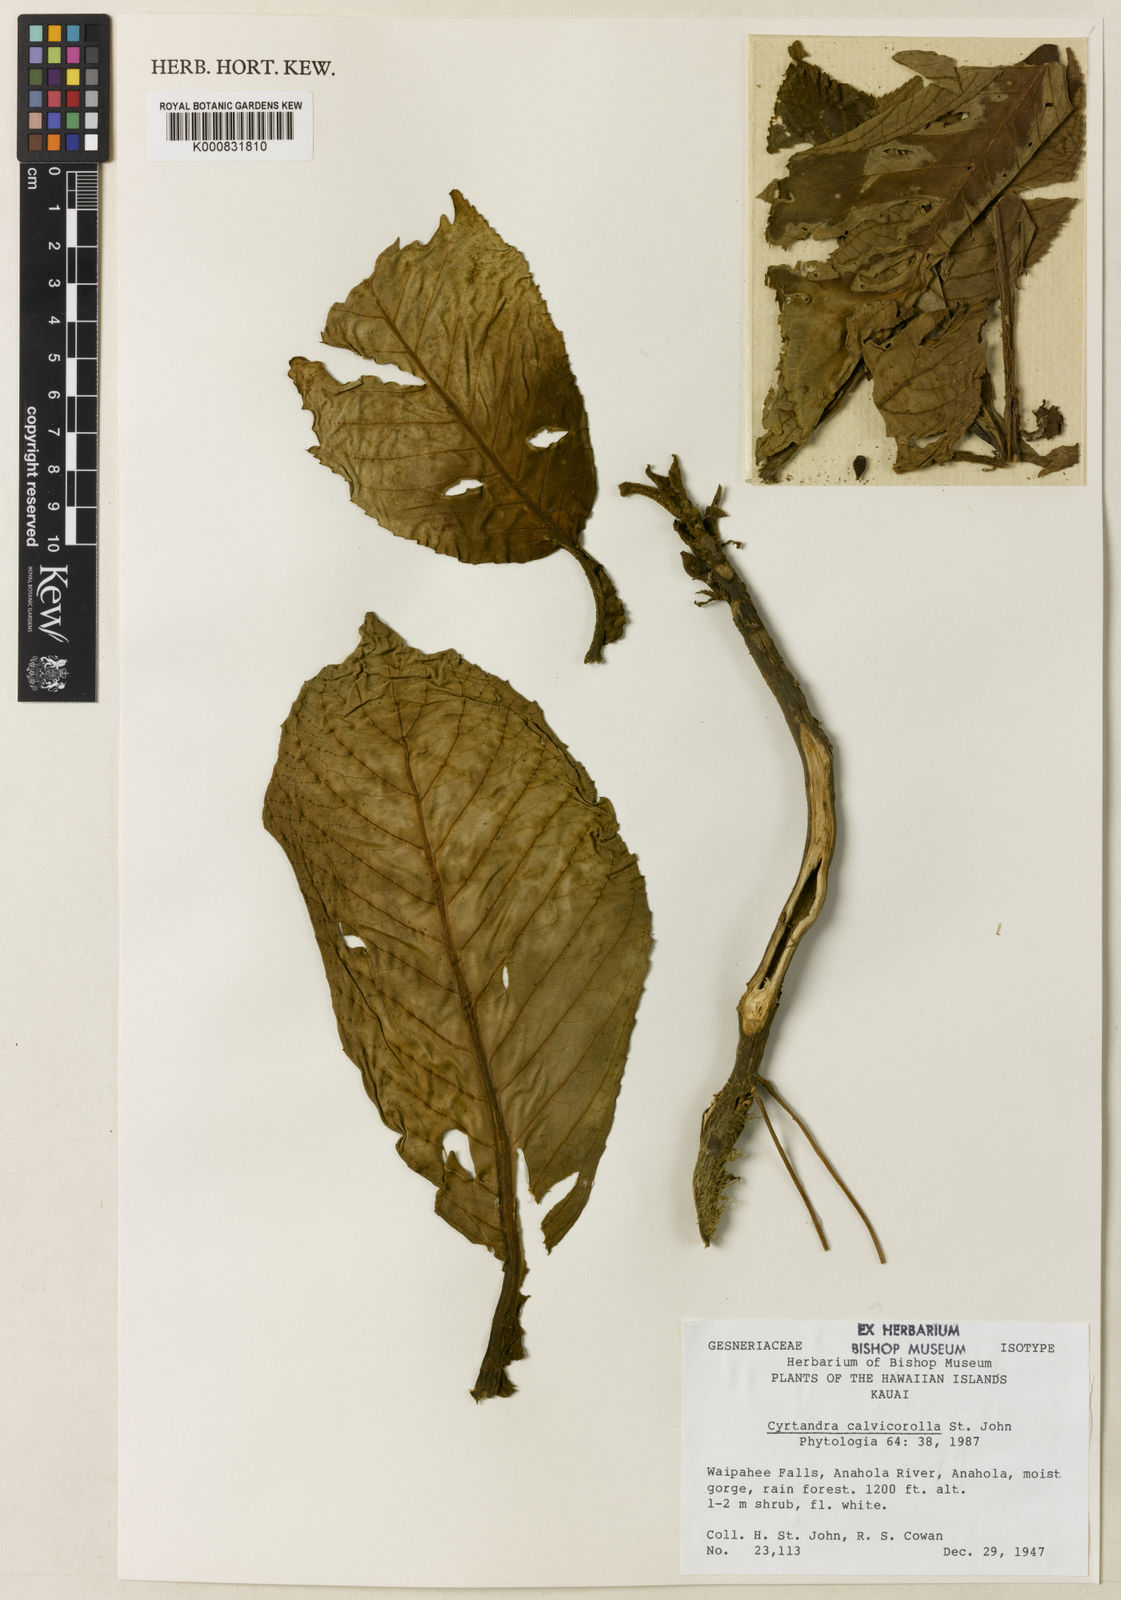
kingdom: Plantae
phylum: Tracheophyta
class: Magnoliopsida
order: Lamiales
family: Gesneriaceae
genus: Cyrtandra
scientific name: Cyrtandra confertiflora
